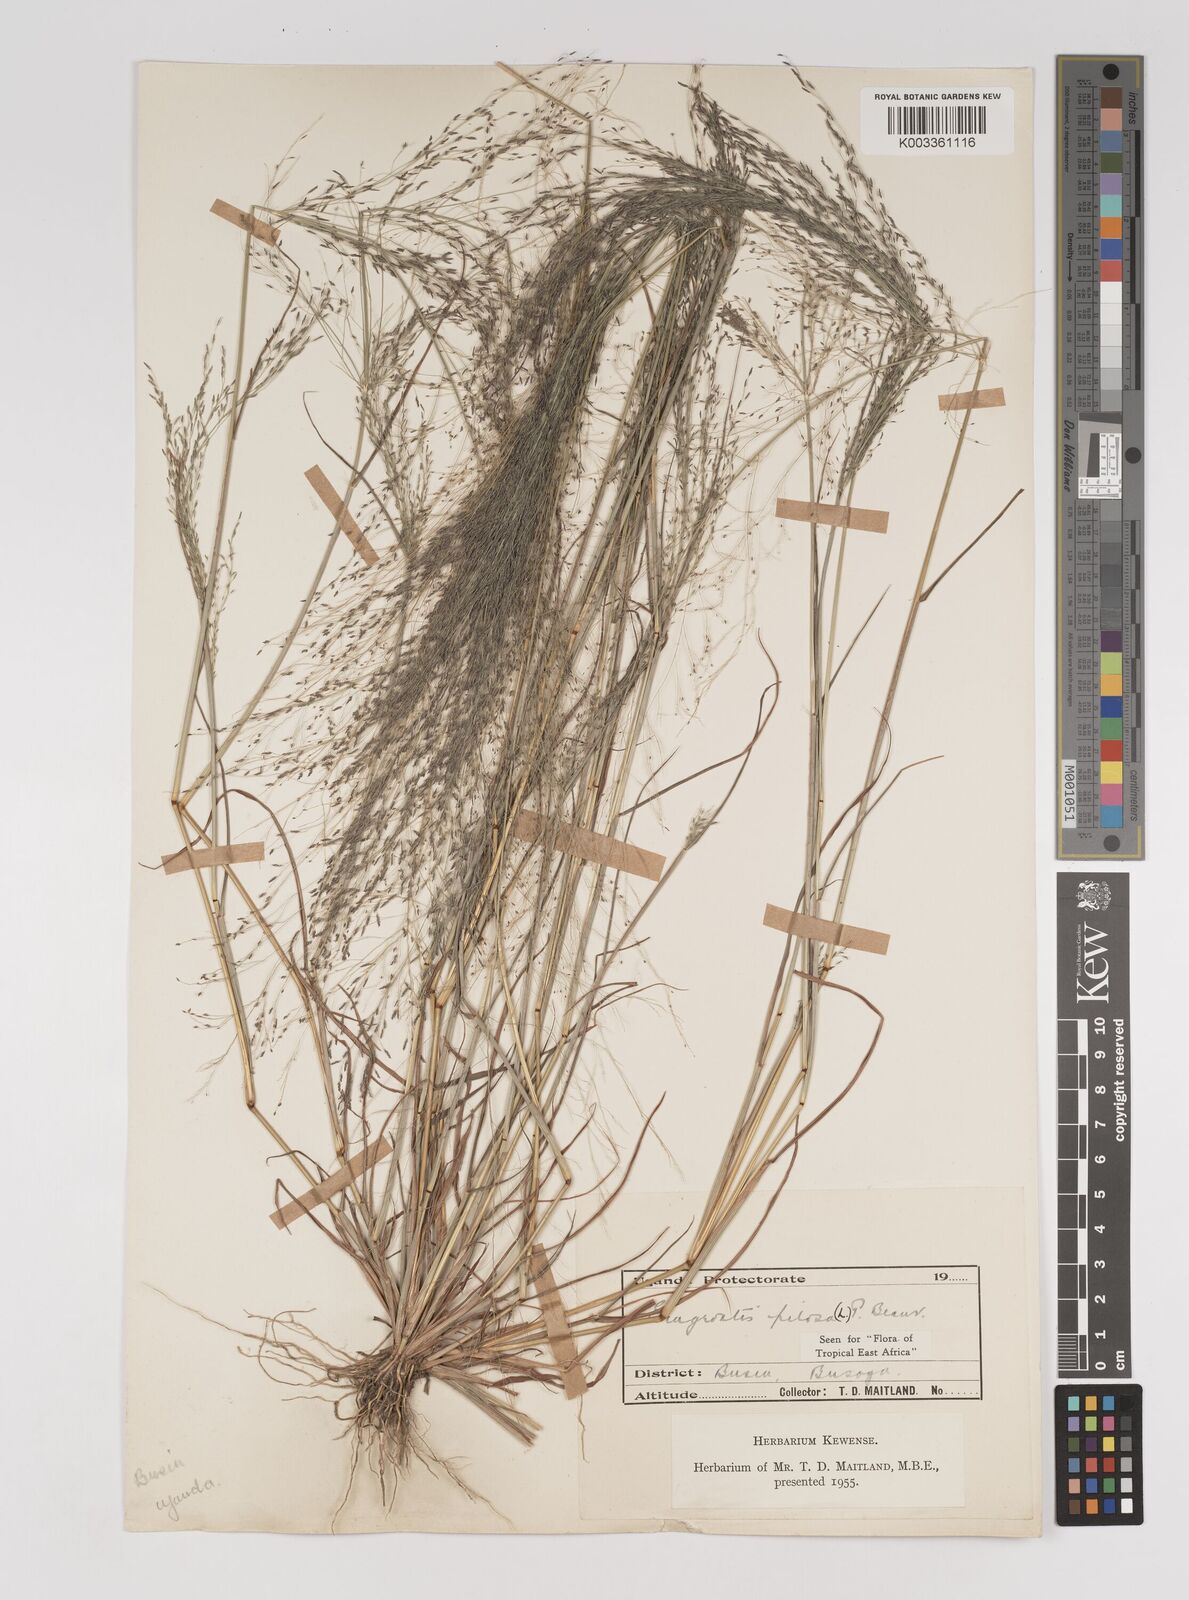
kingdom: Plantae
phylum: Tracheophyta
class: Liliopsida
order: Poales
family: Poaceae
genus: Eragrostis
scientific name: Eragrostis pilosa
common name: Indian lovegrass
